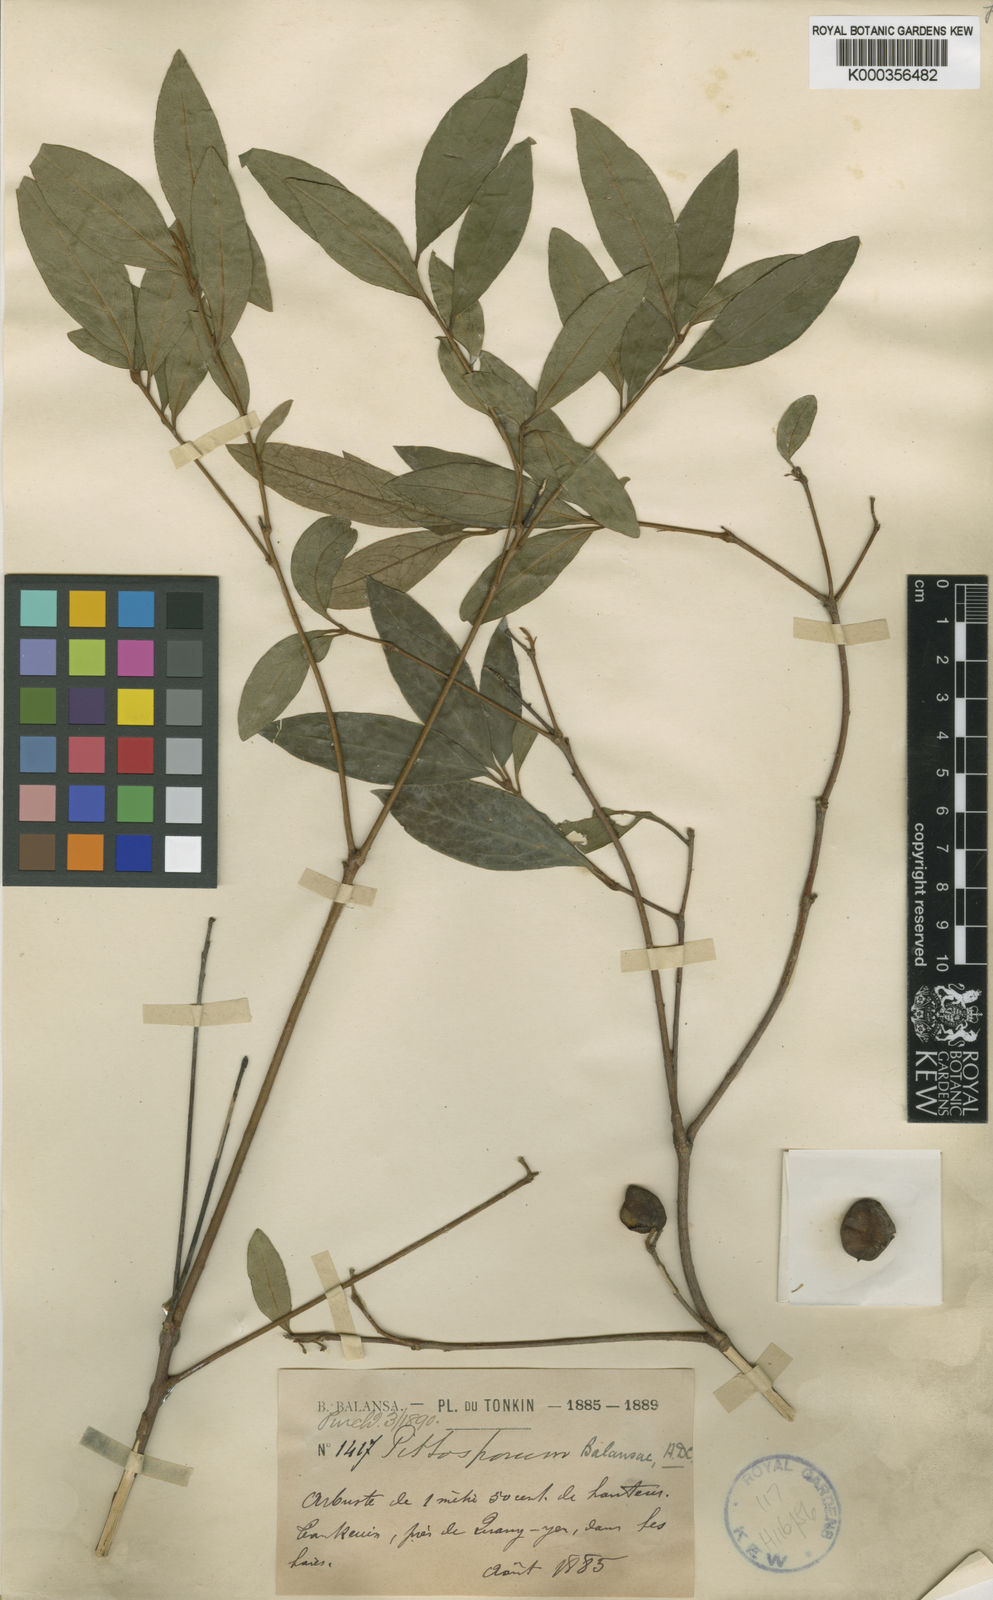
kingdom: Plantae
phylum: Tracheophyta
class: Magnoliopsida
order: Apiales
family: Pittosporaceae
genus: Pittosporum
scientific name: Pittosporum
